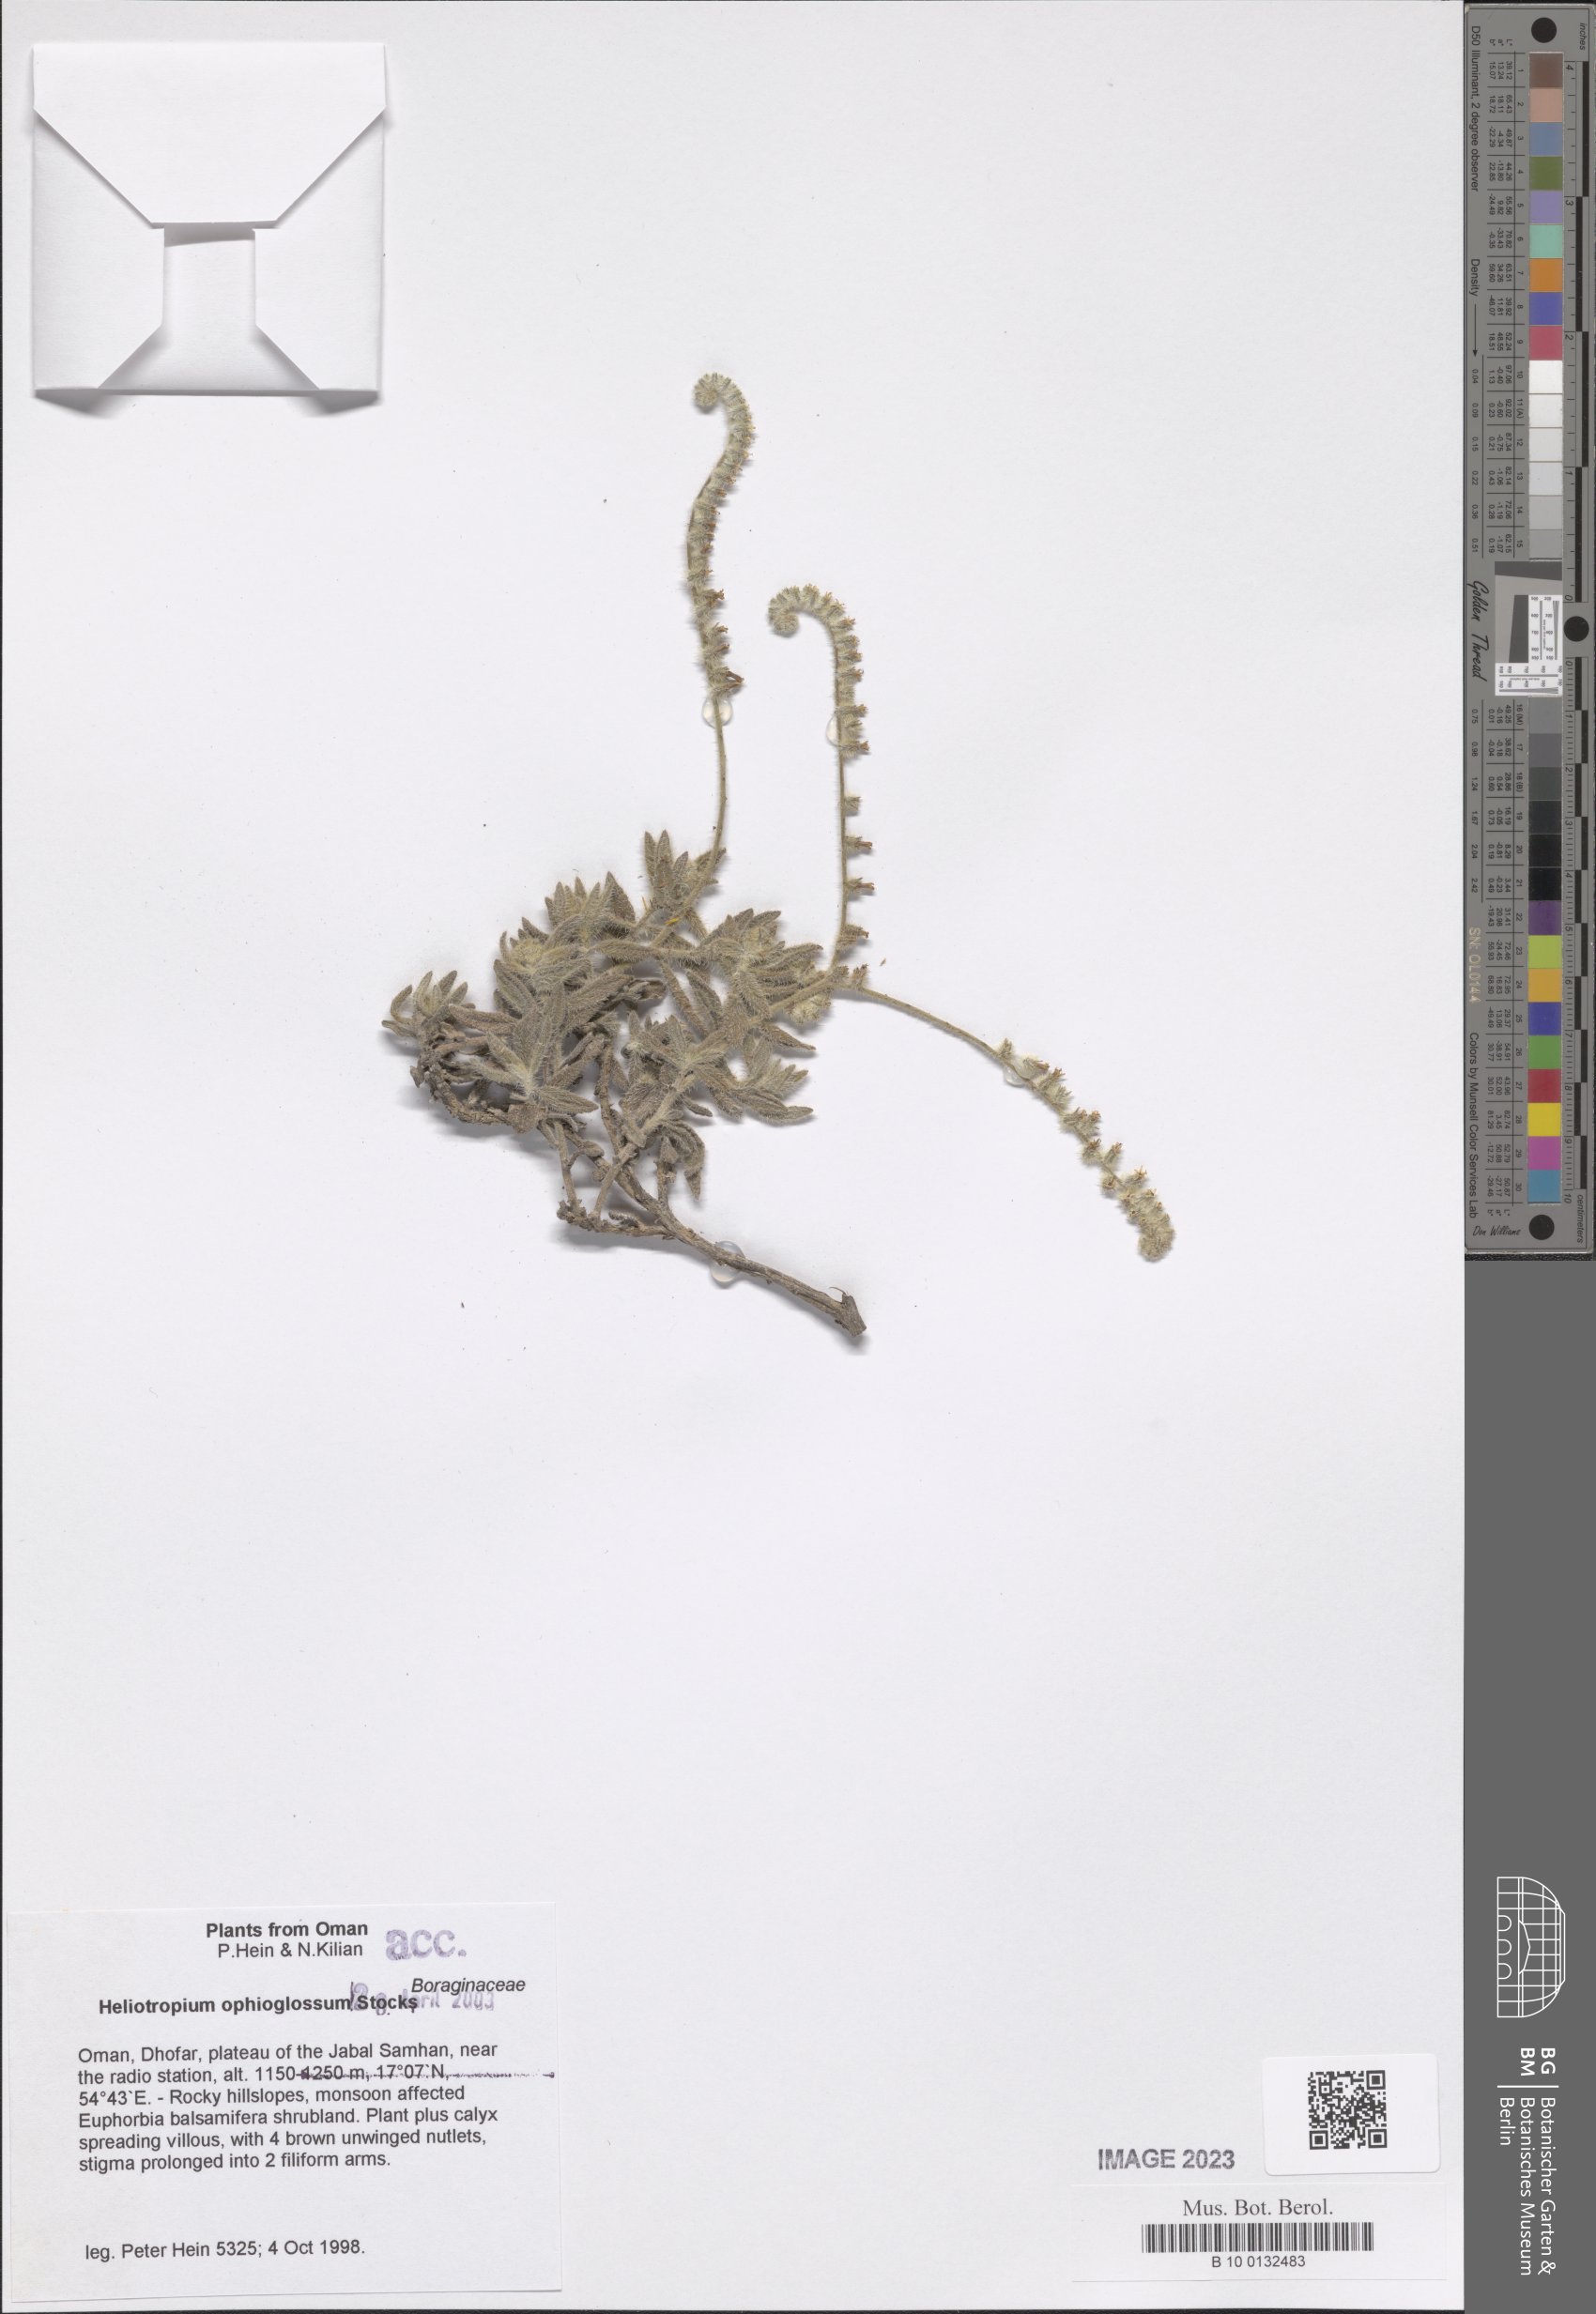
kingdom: Plantae
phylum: Tracheophyta
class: Magnoliopsida
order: Boraginales
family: Heliotropiaceae
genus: Heliotropium
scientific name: Heliotropium ophioglossum
